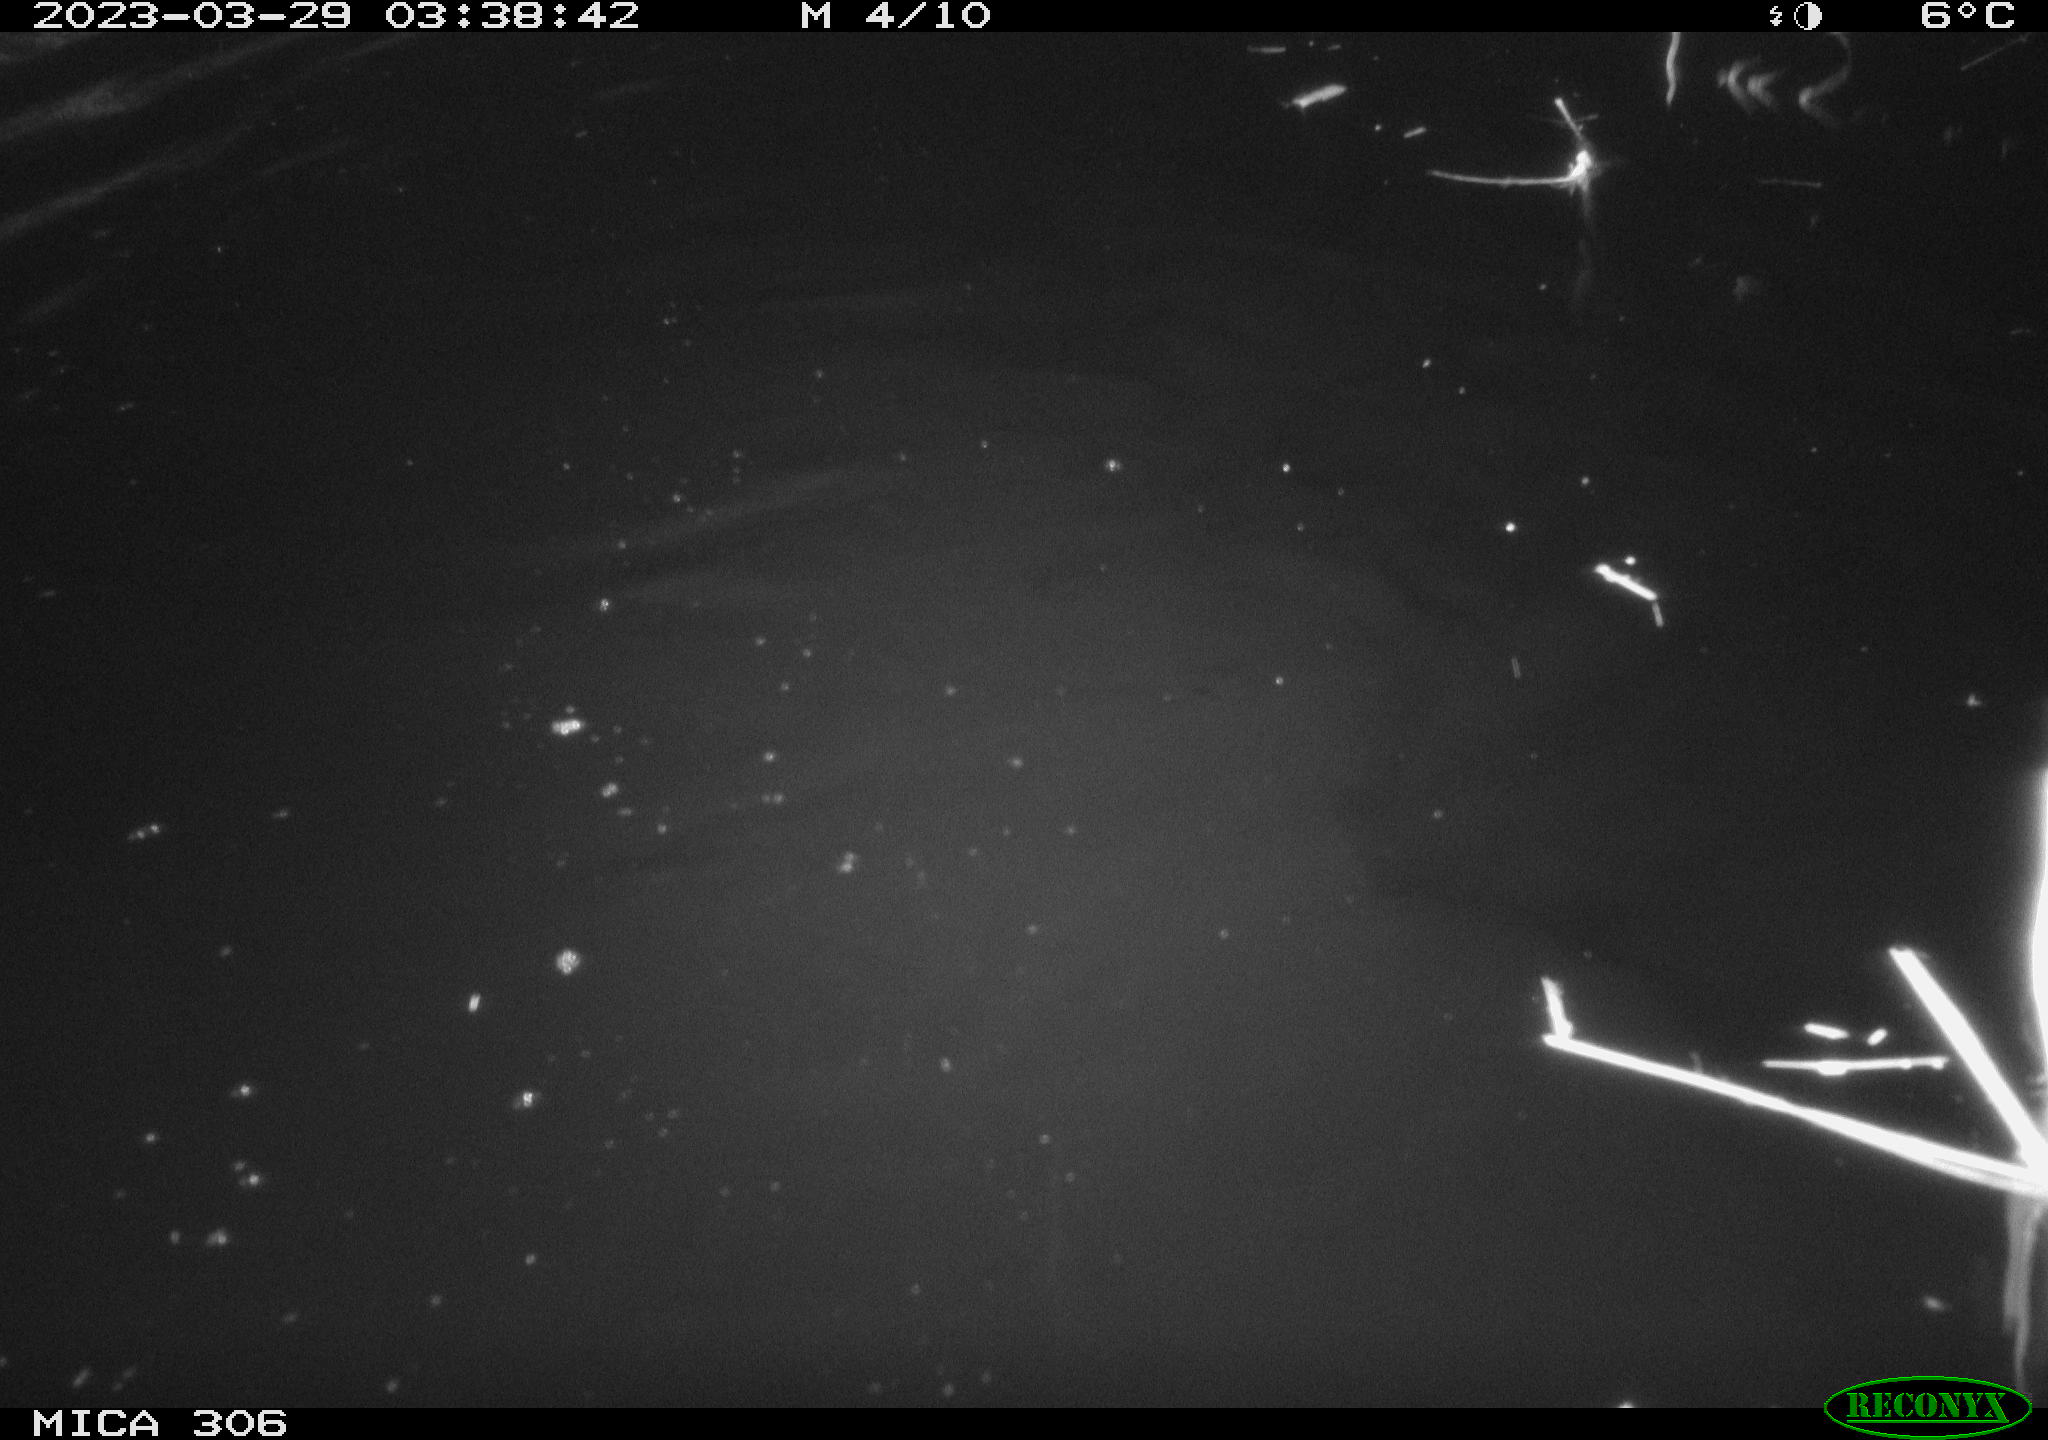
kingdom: Animalia
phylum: Chordata
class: Mammalia
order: Rodentia
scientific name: Rodentia
